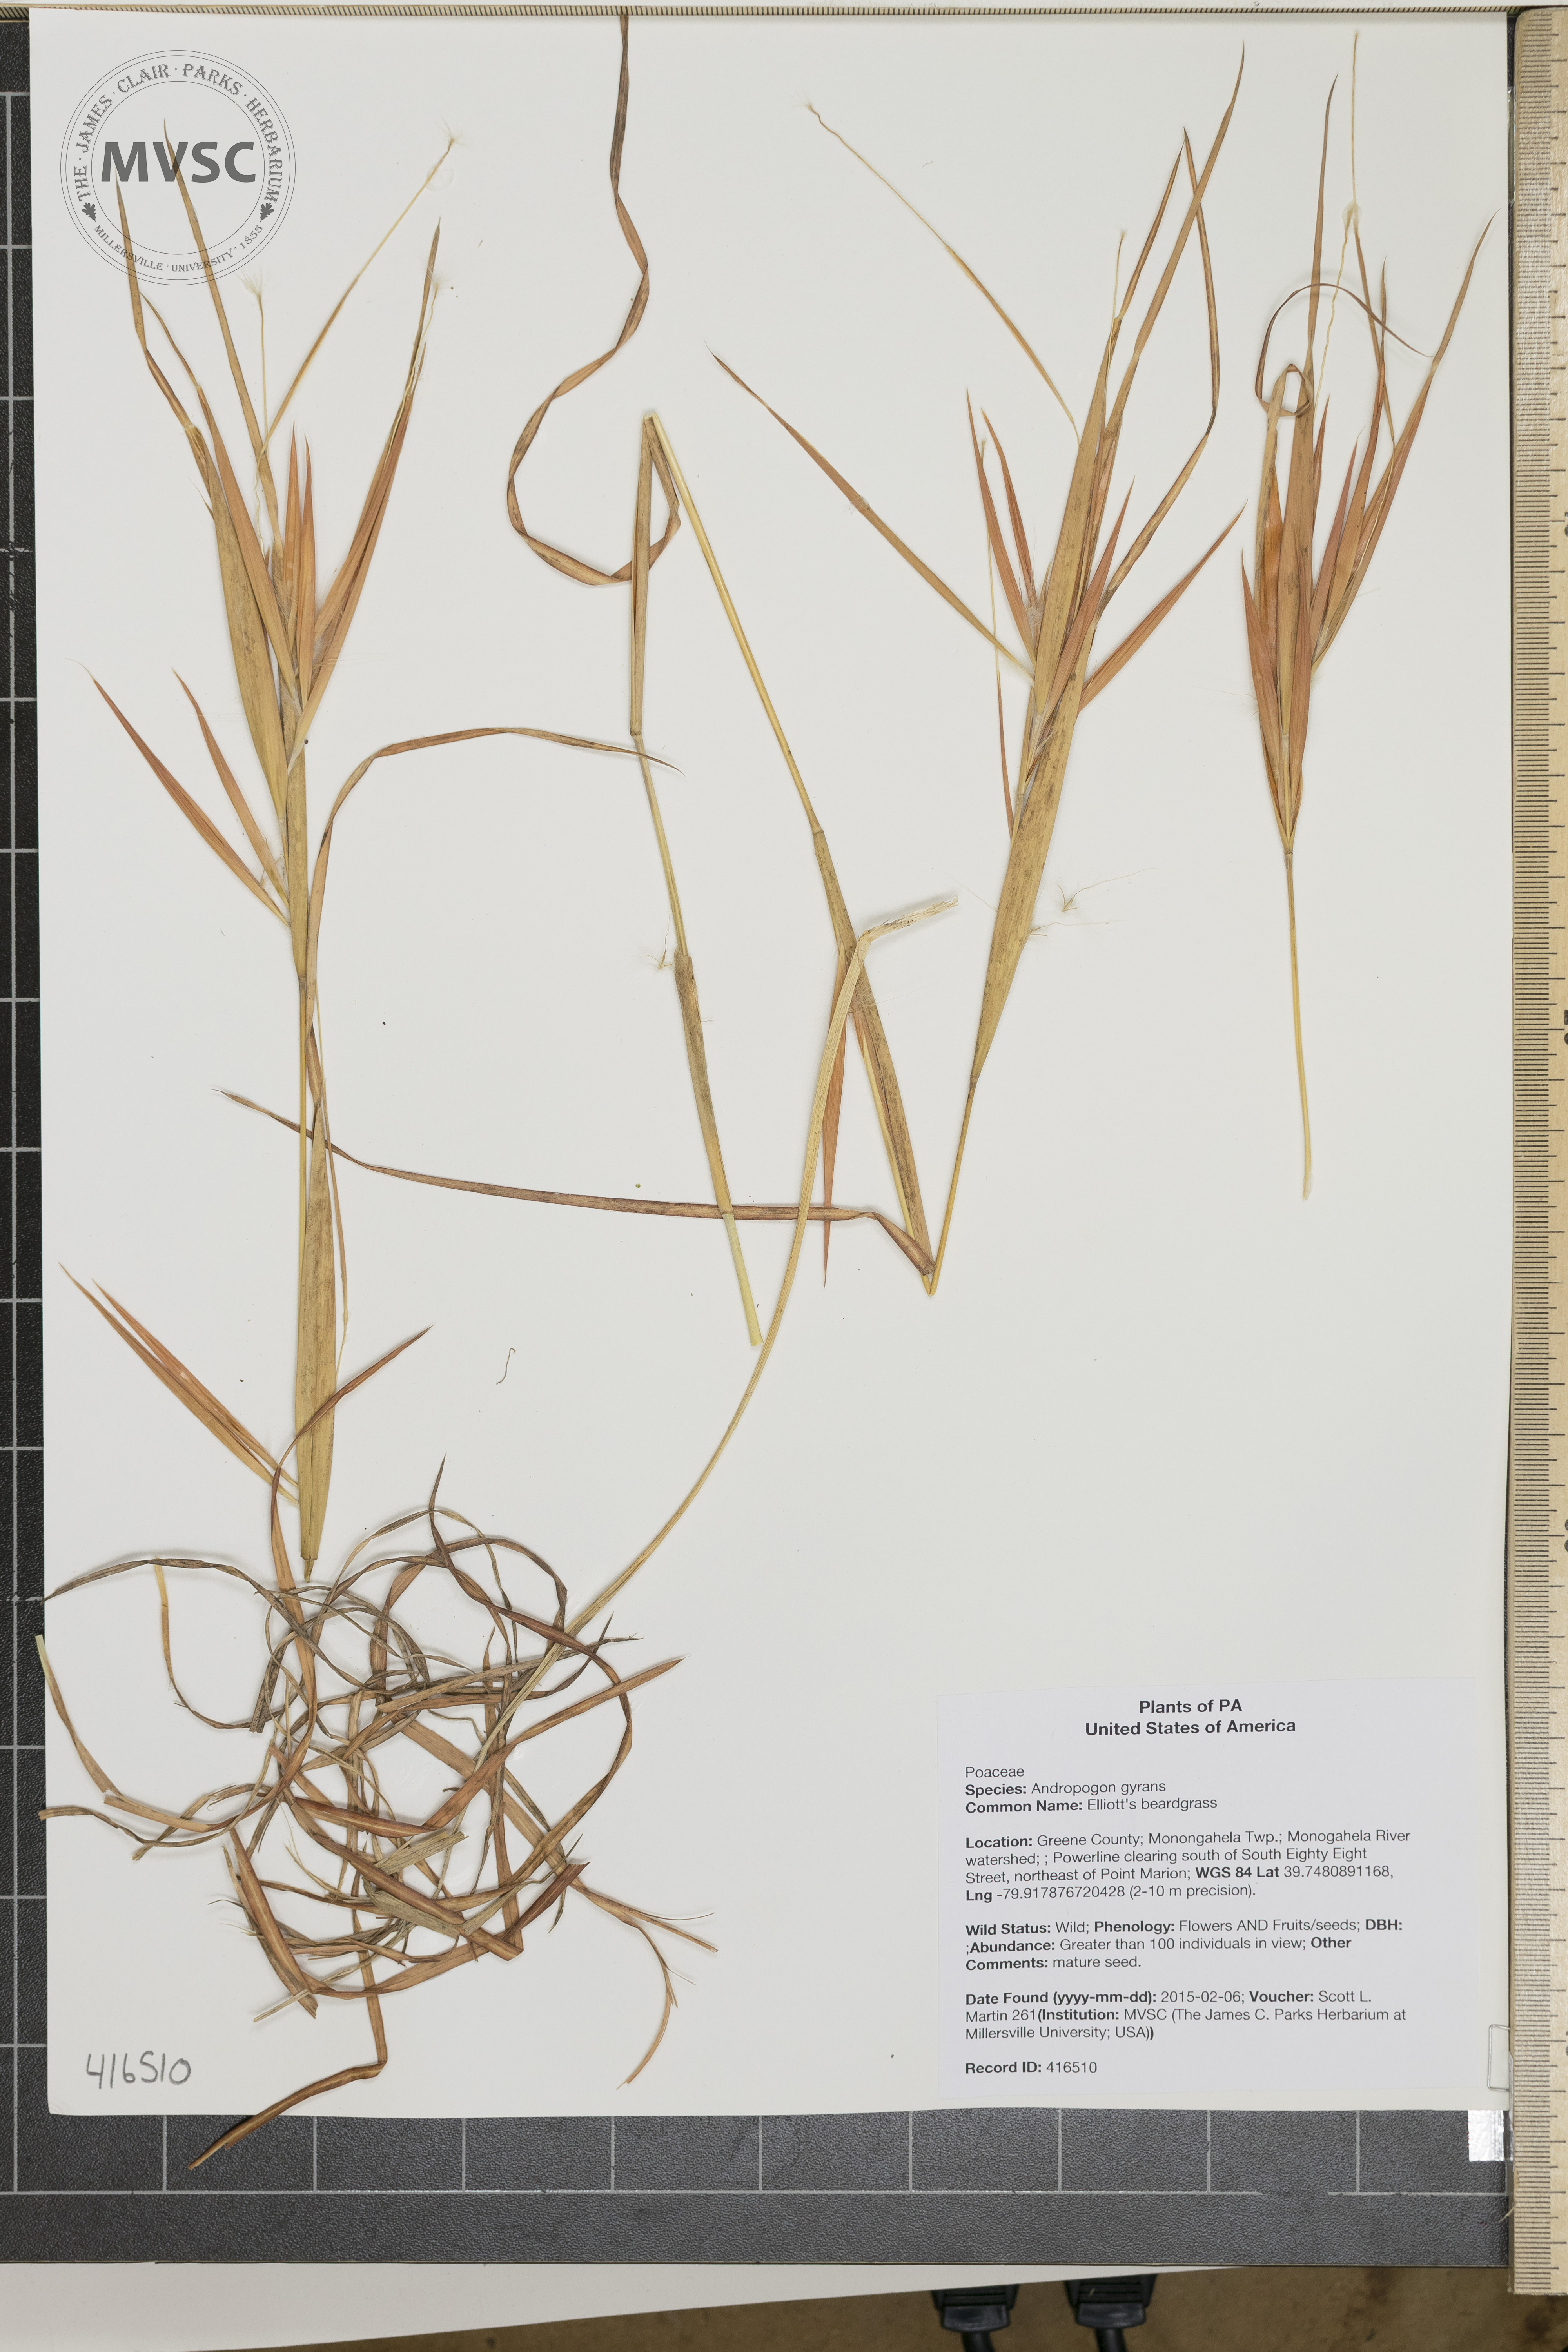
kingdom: Plantae
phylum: Tracheophyta
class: Liliopsida
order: Poales
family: Poaceae
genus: Andropogon
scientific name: Andropogon gyrans
